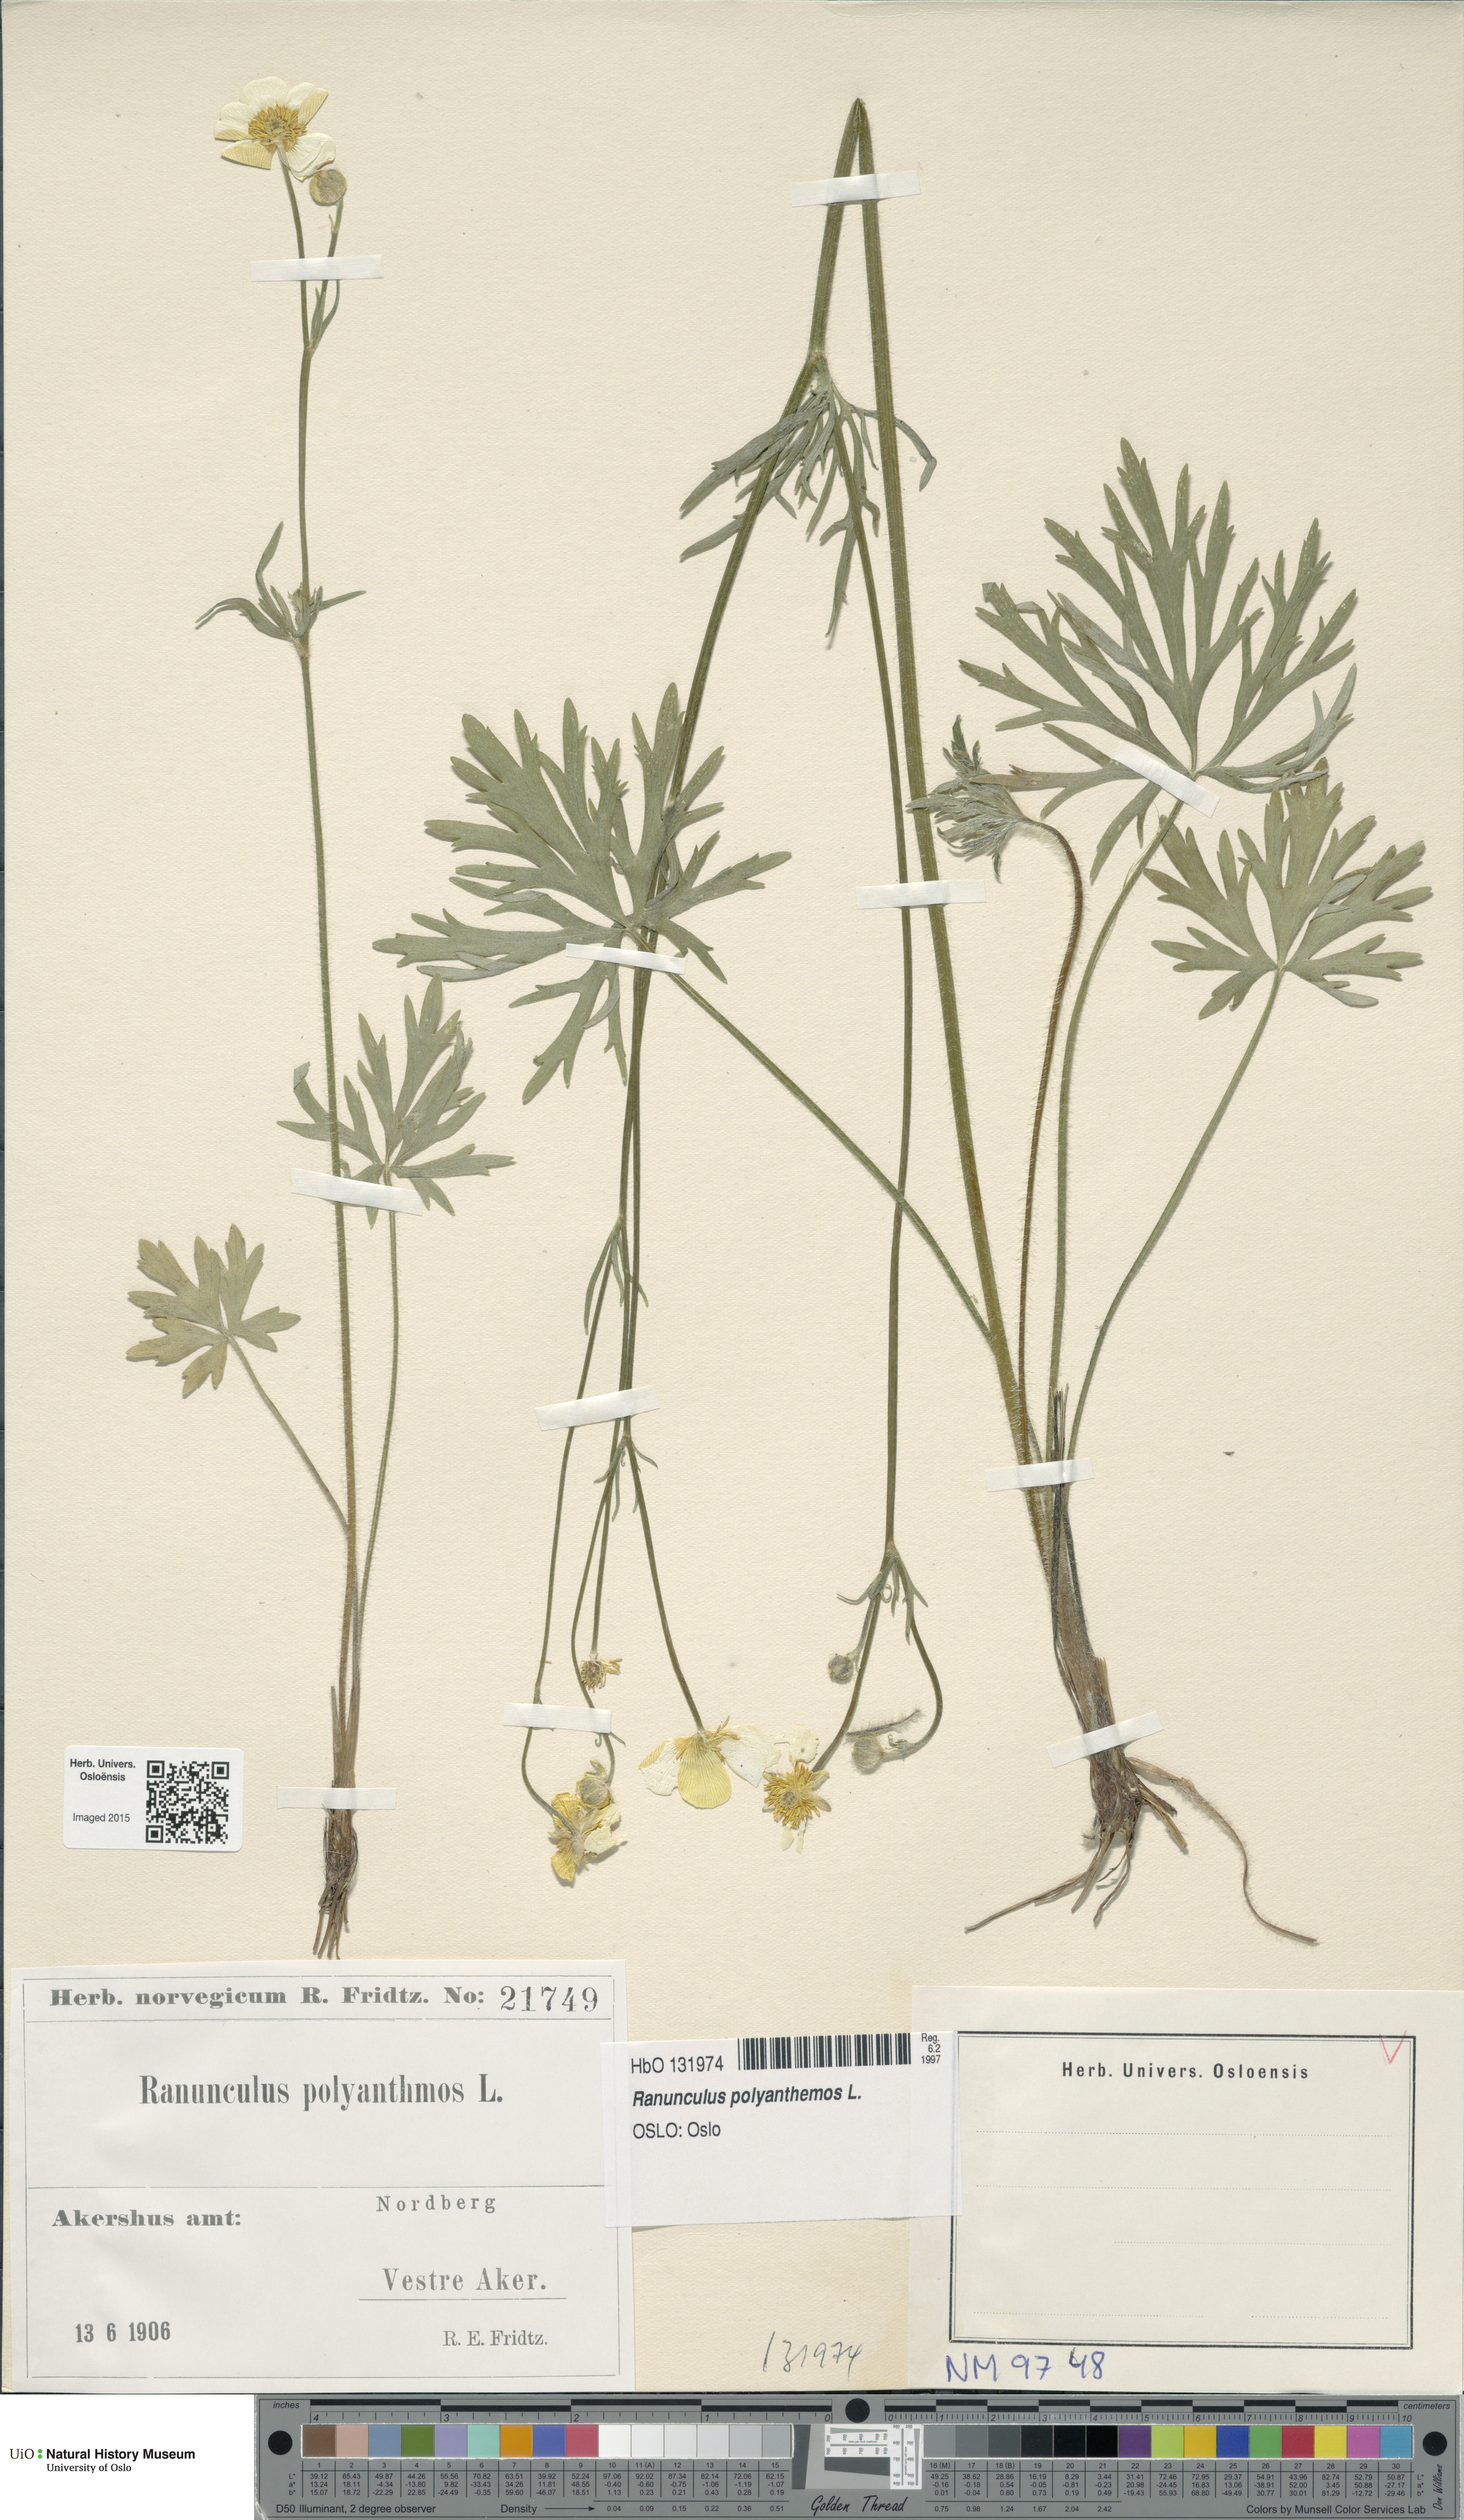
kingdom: Plantae
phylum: Tracheophyta
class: Magnoliopsida
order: Ranunculales
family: Ranunculaceae
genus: Ranunculus
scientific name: Ranunculus polyanthemos
